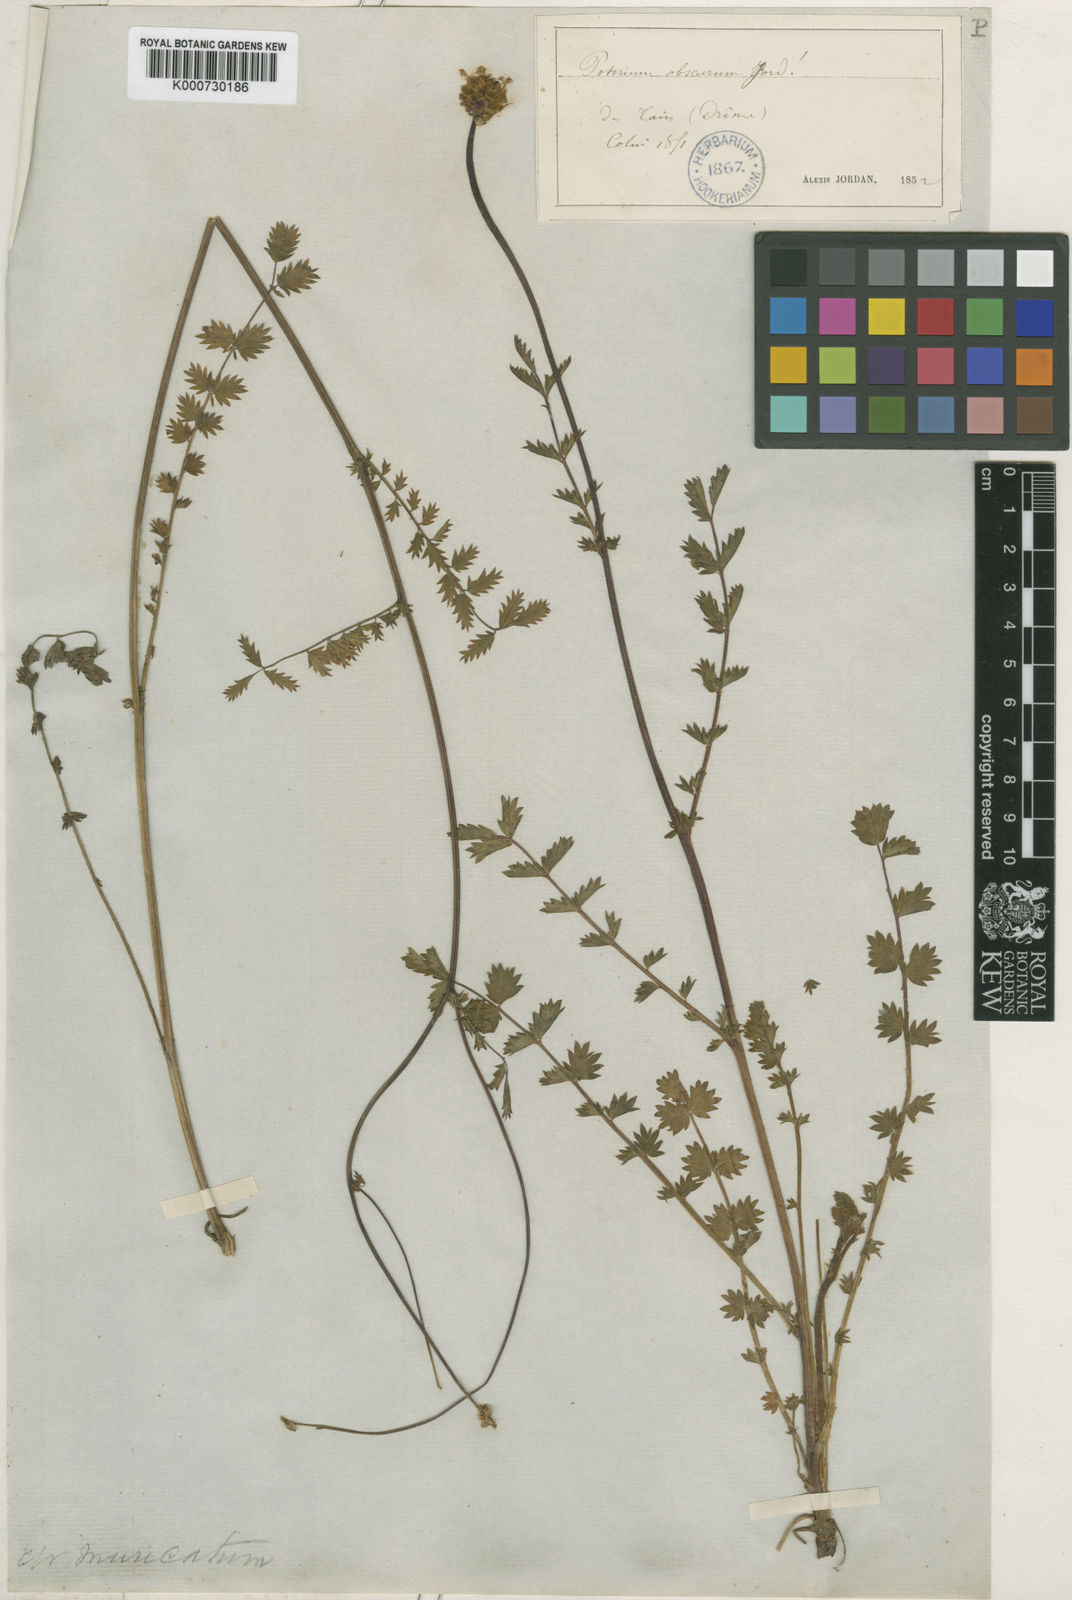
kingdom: Plantae
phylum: Tracheophyta
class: Magnoliopsida
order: Rosales
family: Rosaceae
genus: Sanguisorba
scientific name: Sanguisorba
